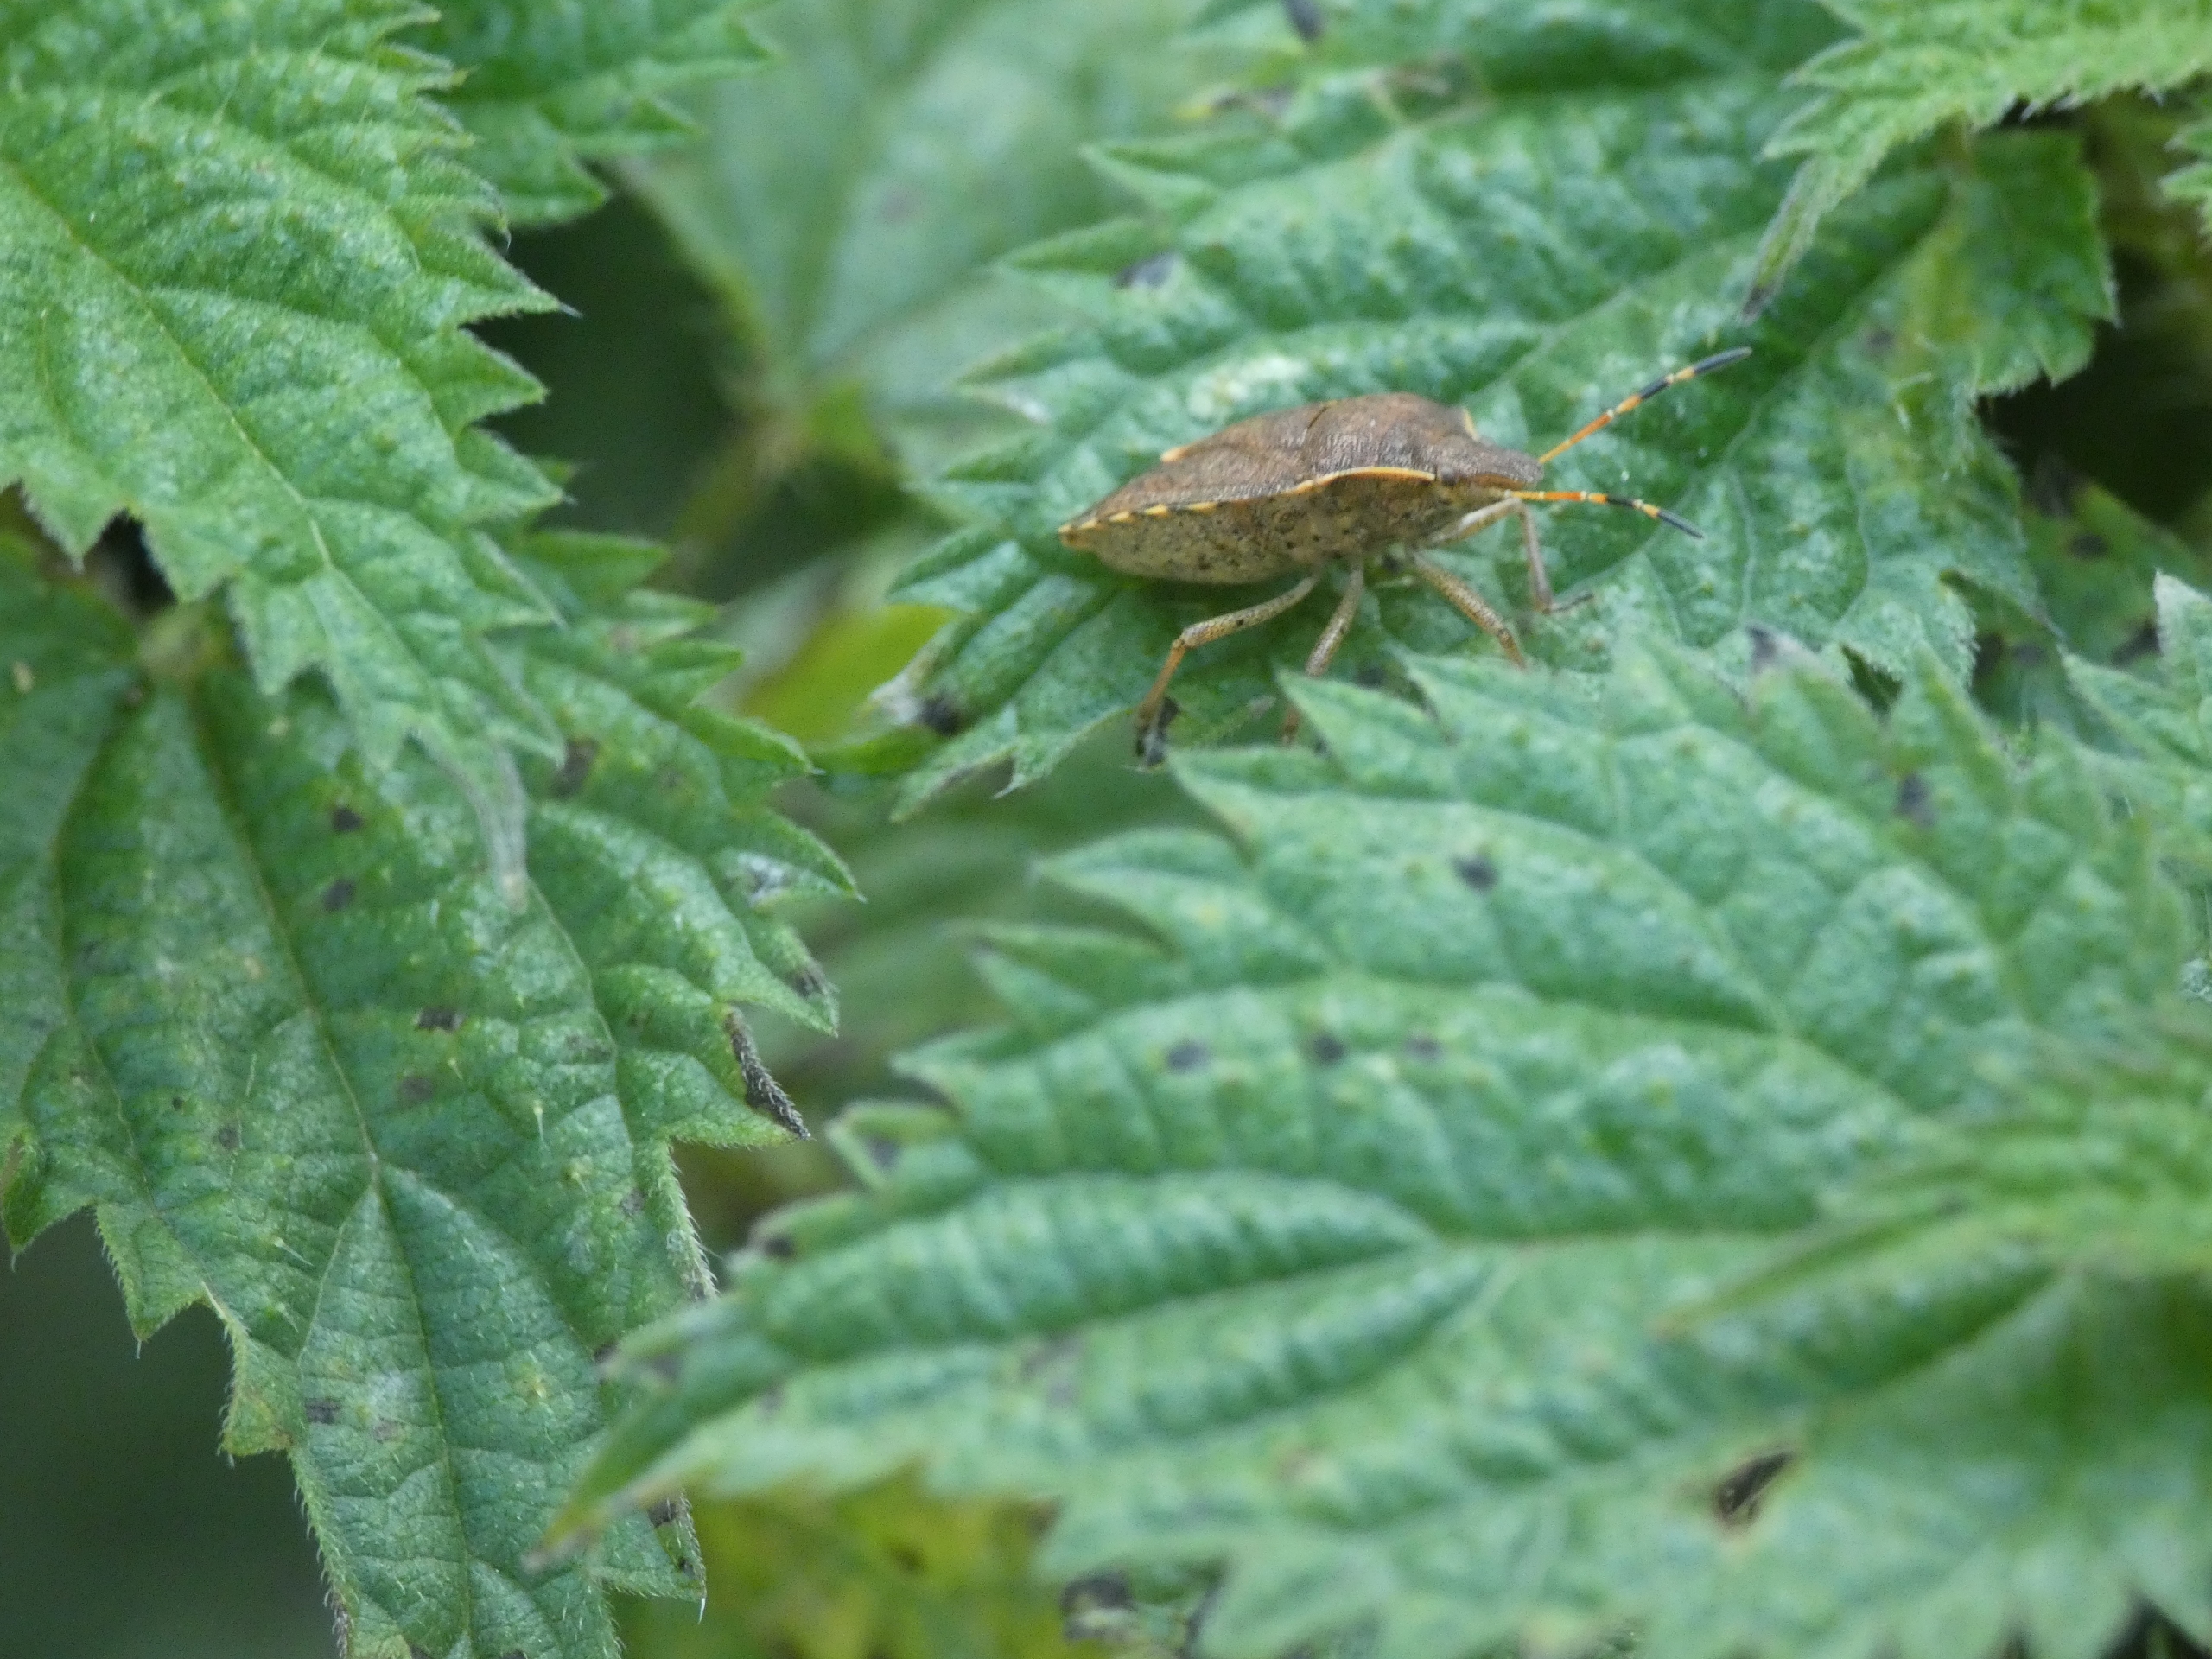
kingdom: Animalia
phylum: Arthropoda
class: Insecta
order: Hemiptera
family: Pentatomidae
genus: Holcostethus
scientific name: Holcostethus strictus
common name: Lille bærtæge
